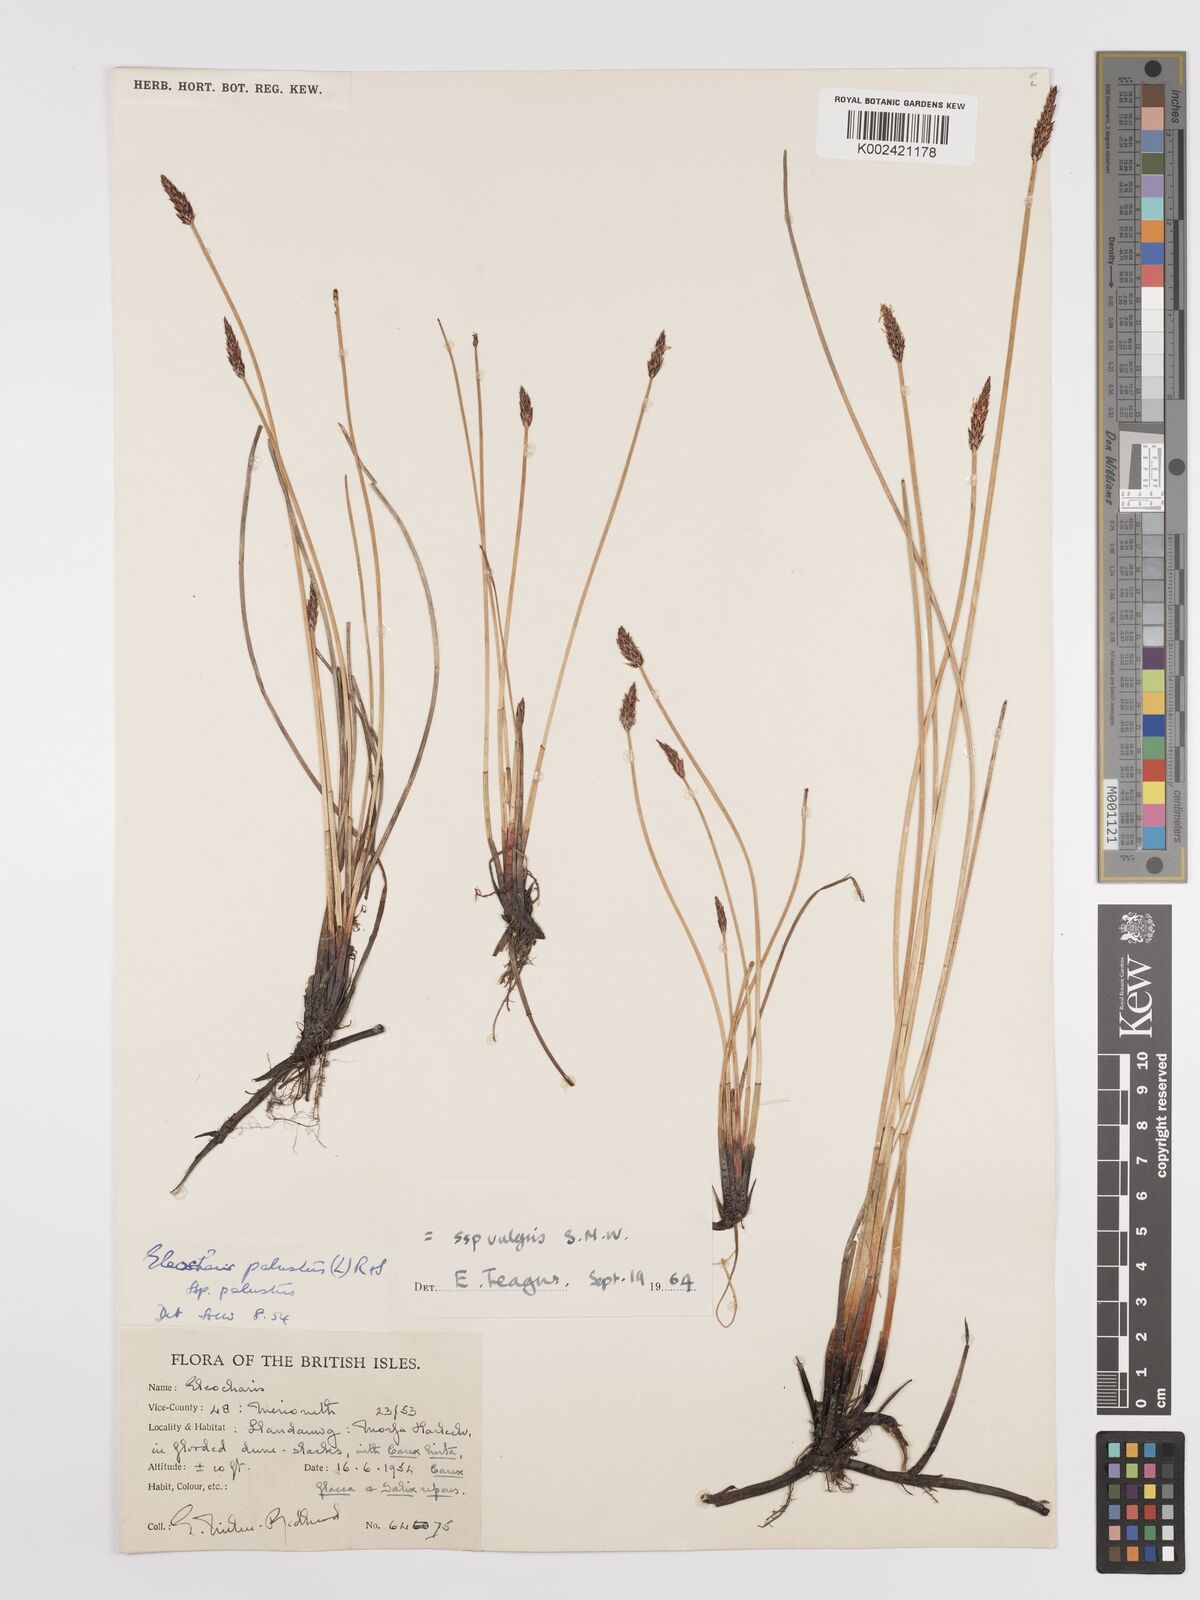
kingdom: Plantae
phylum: Tracheophyta
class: Liliopsida
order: Poales
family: Cyperaceae
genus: Eleocharis
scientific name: Eleocharis palustris
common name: Common spike-rush
